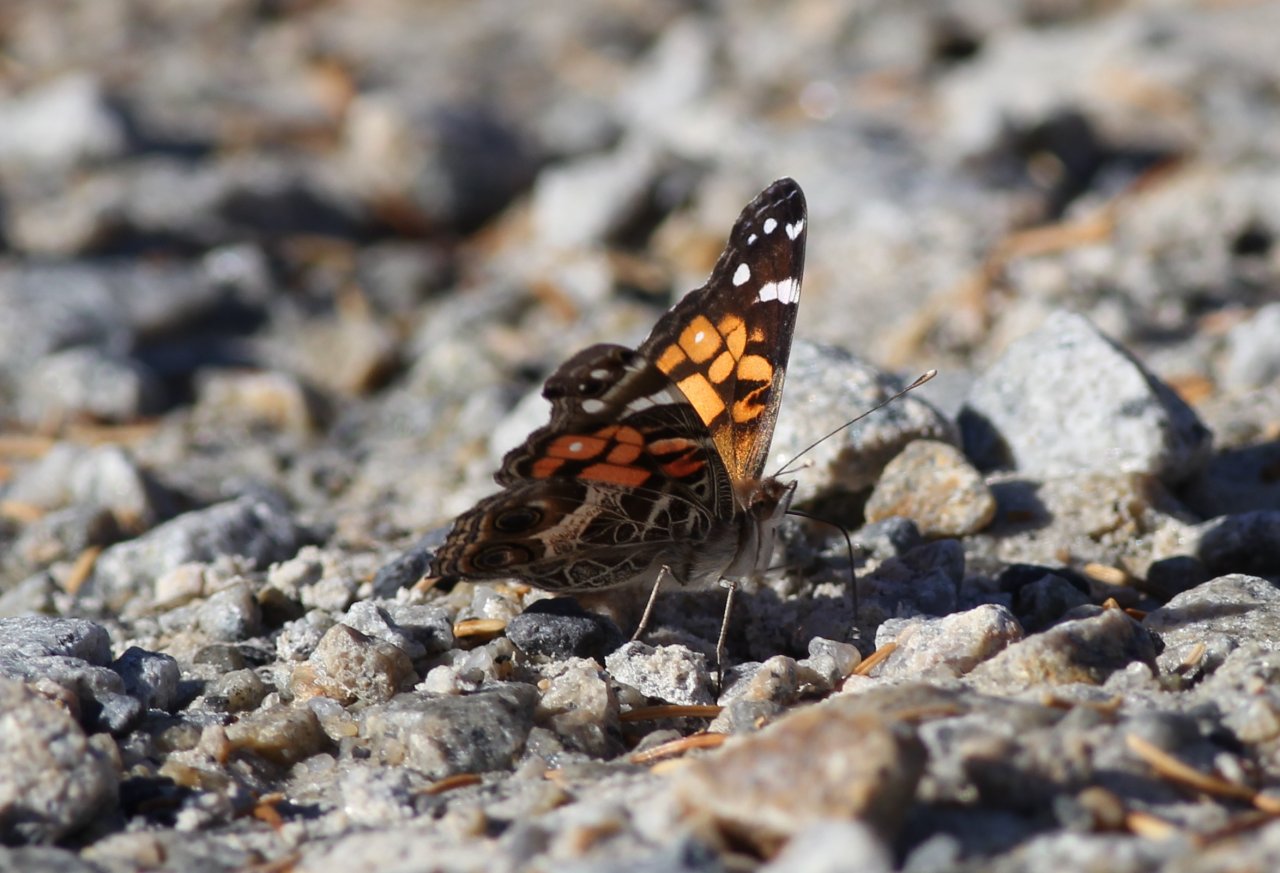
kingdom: Animalia
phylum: Arthropoda
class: Insecta
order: Lepidoptera
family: Nymphalidae
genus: Vanessa
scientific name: Vanessa virginiensis
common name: American Lady
